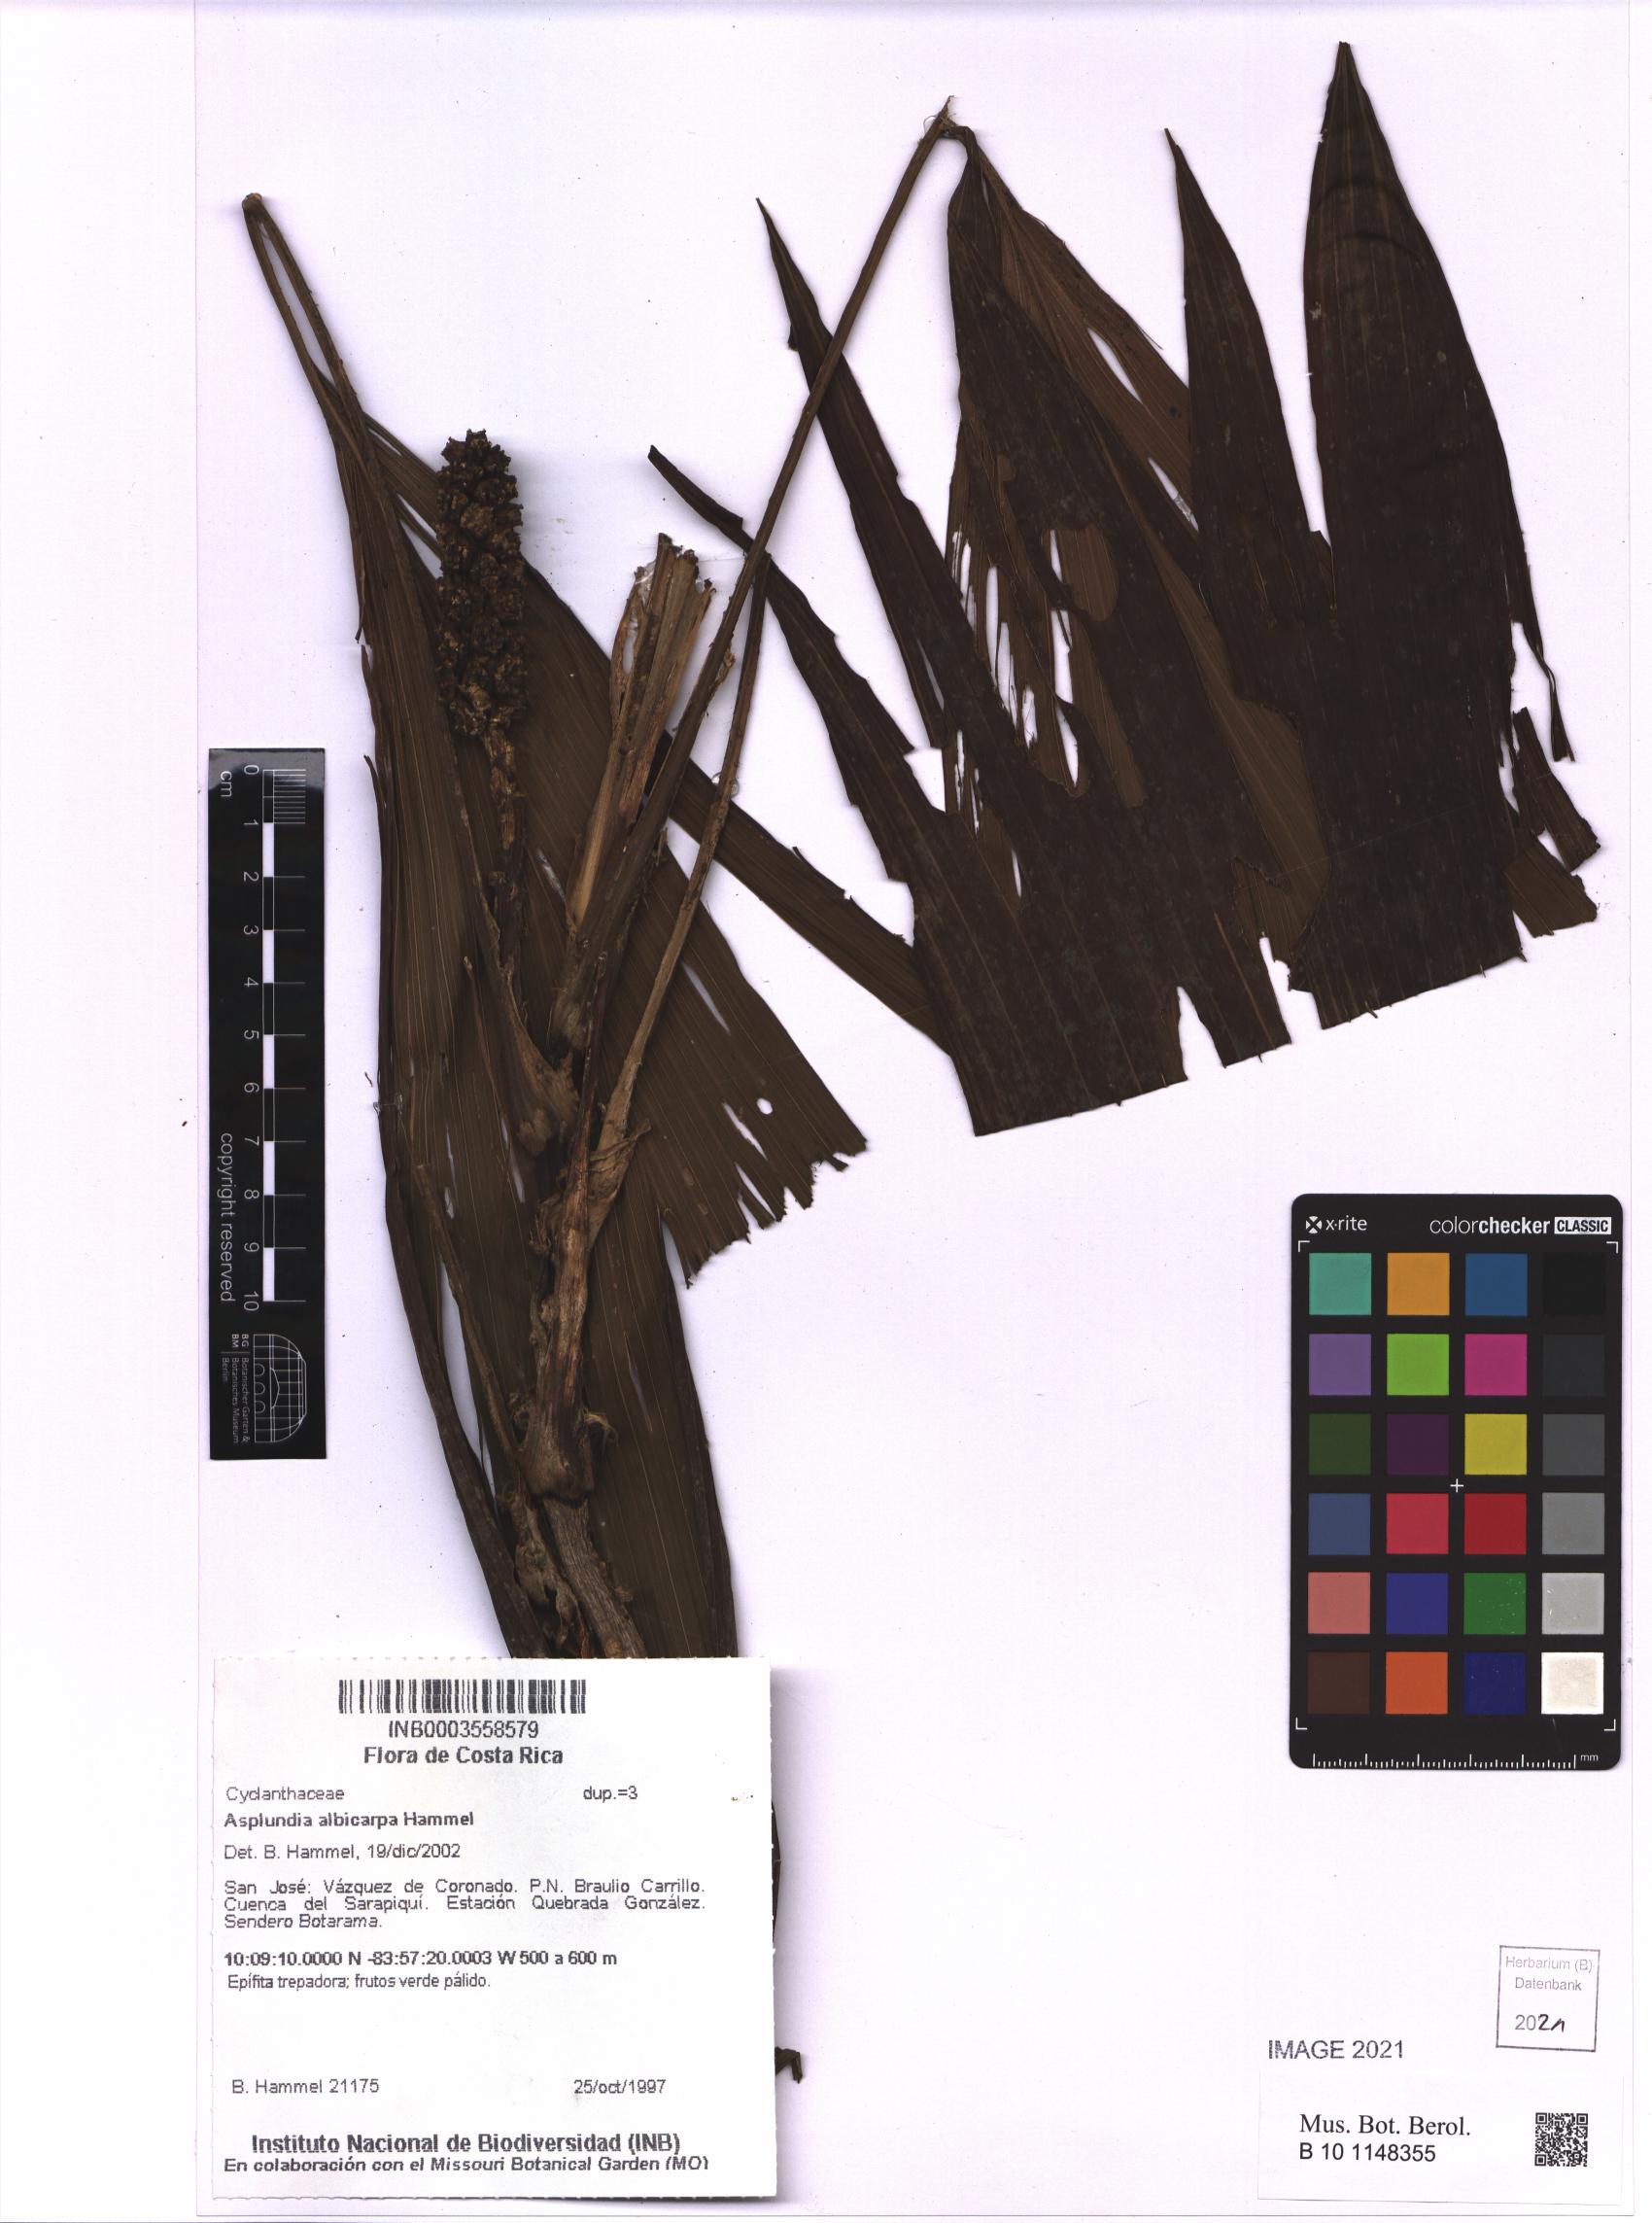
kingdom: Plantae
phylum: Tracheophyta
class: Liliopsida
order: Pandanales
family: Cyclanthaceae
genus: Asplundia
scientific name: Asplundia albicarpa
